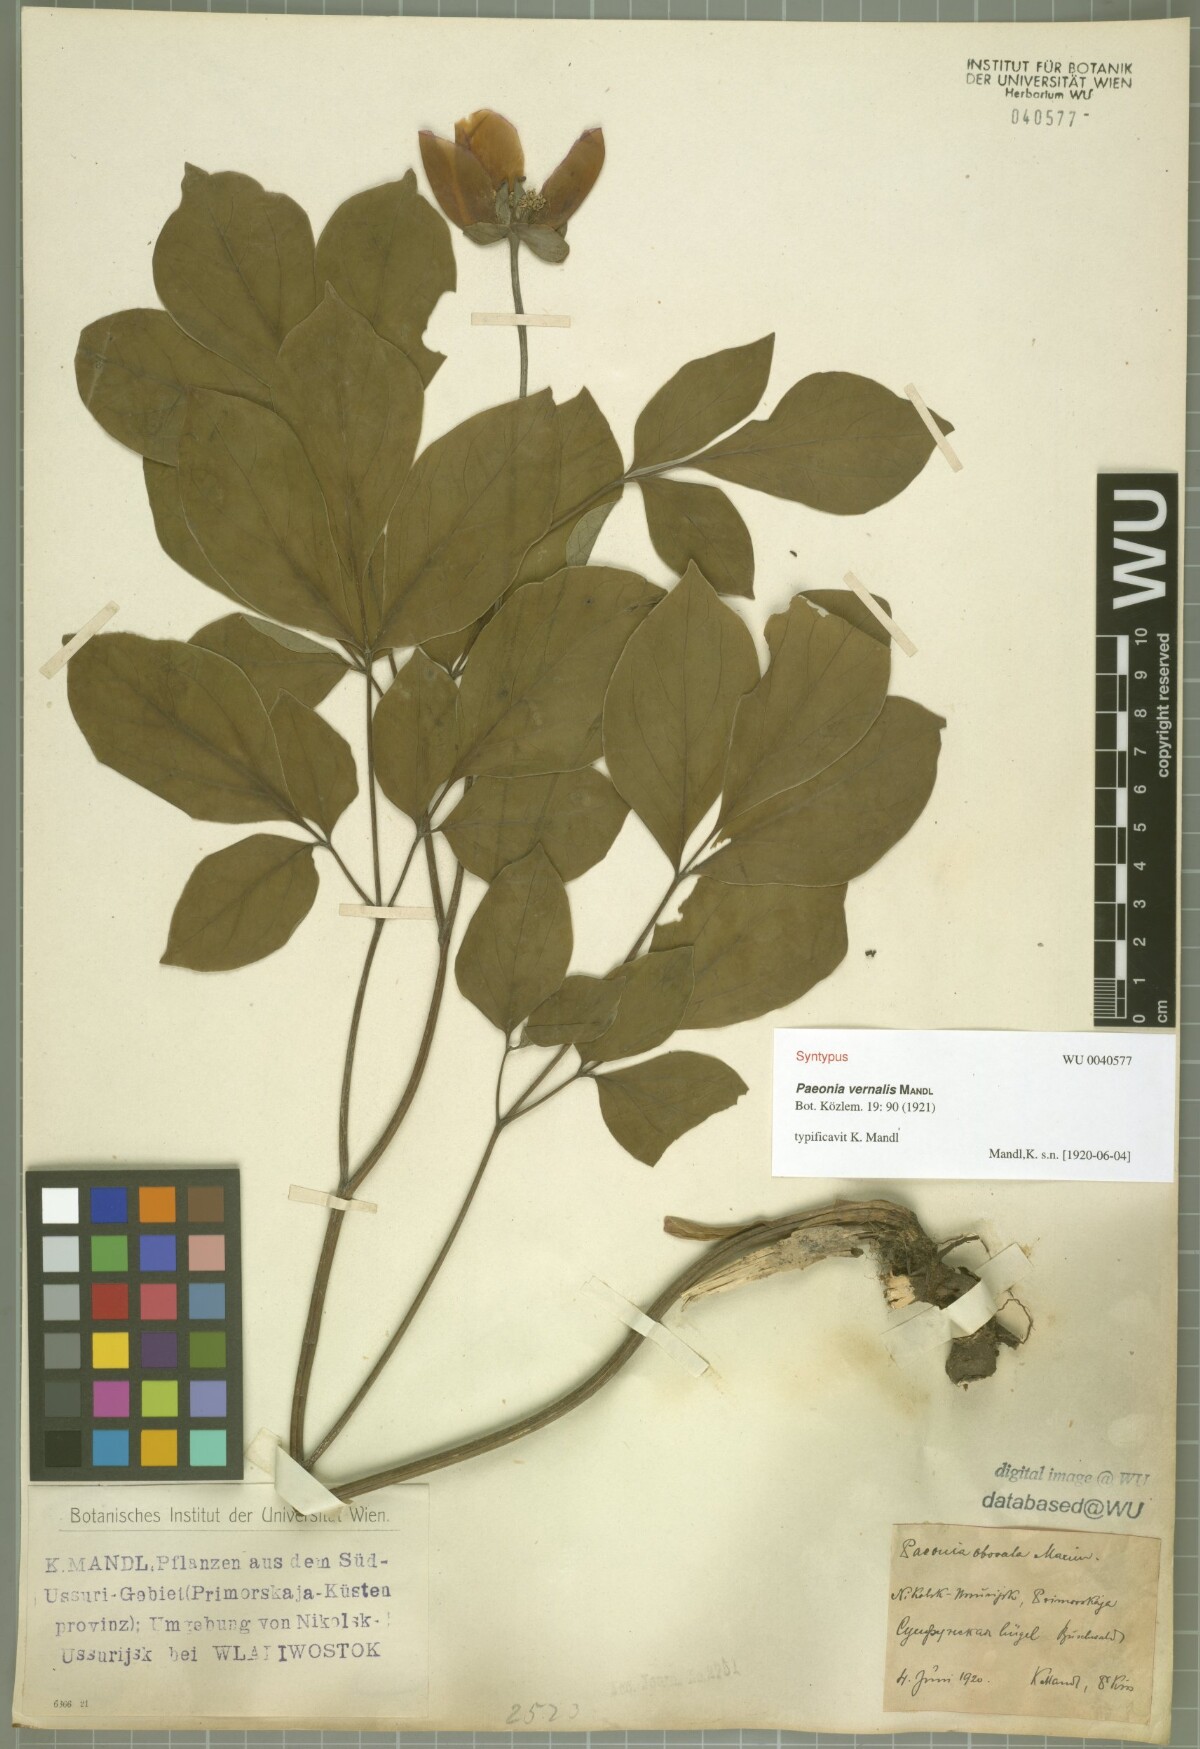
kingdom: Plantae
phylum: Tracheophyta
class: Magnoliopsida
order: Saxifragales
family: Paeoniaceae
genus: Paeonia
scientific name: Paeonia obovata
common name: Chinese peony
